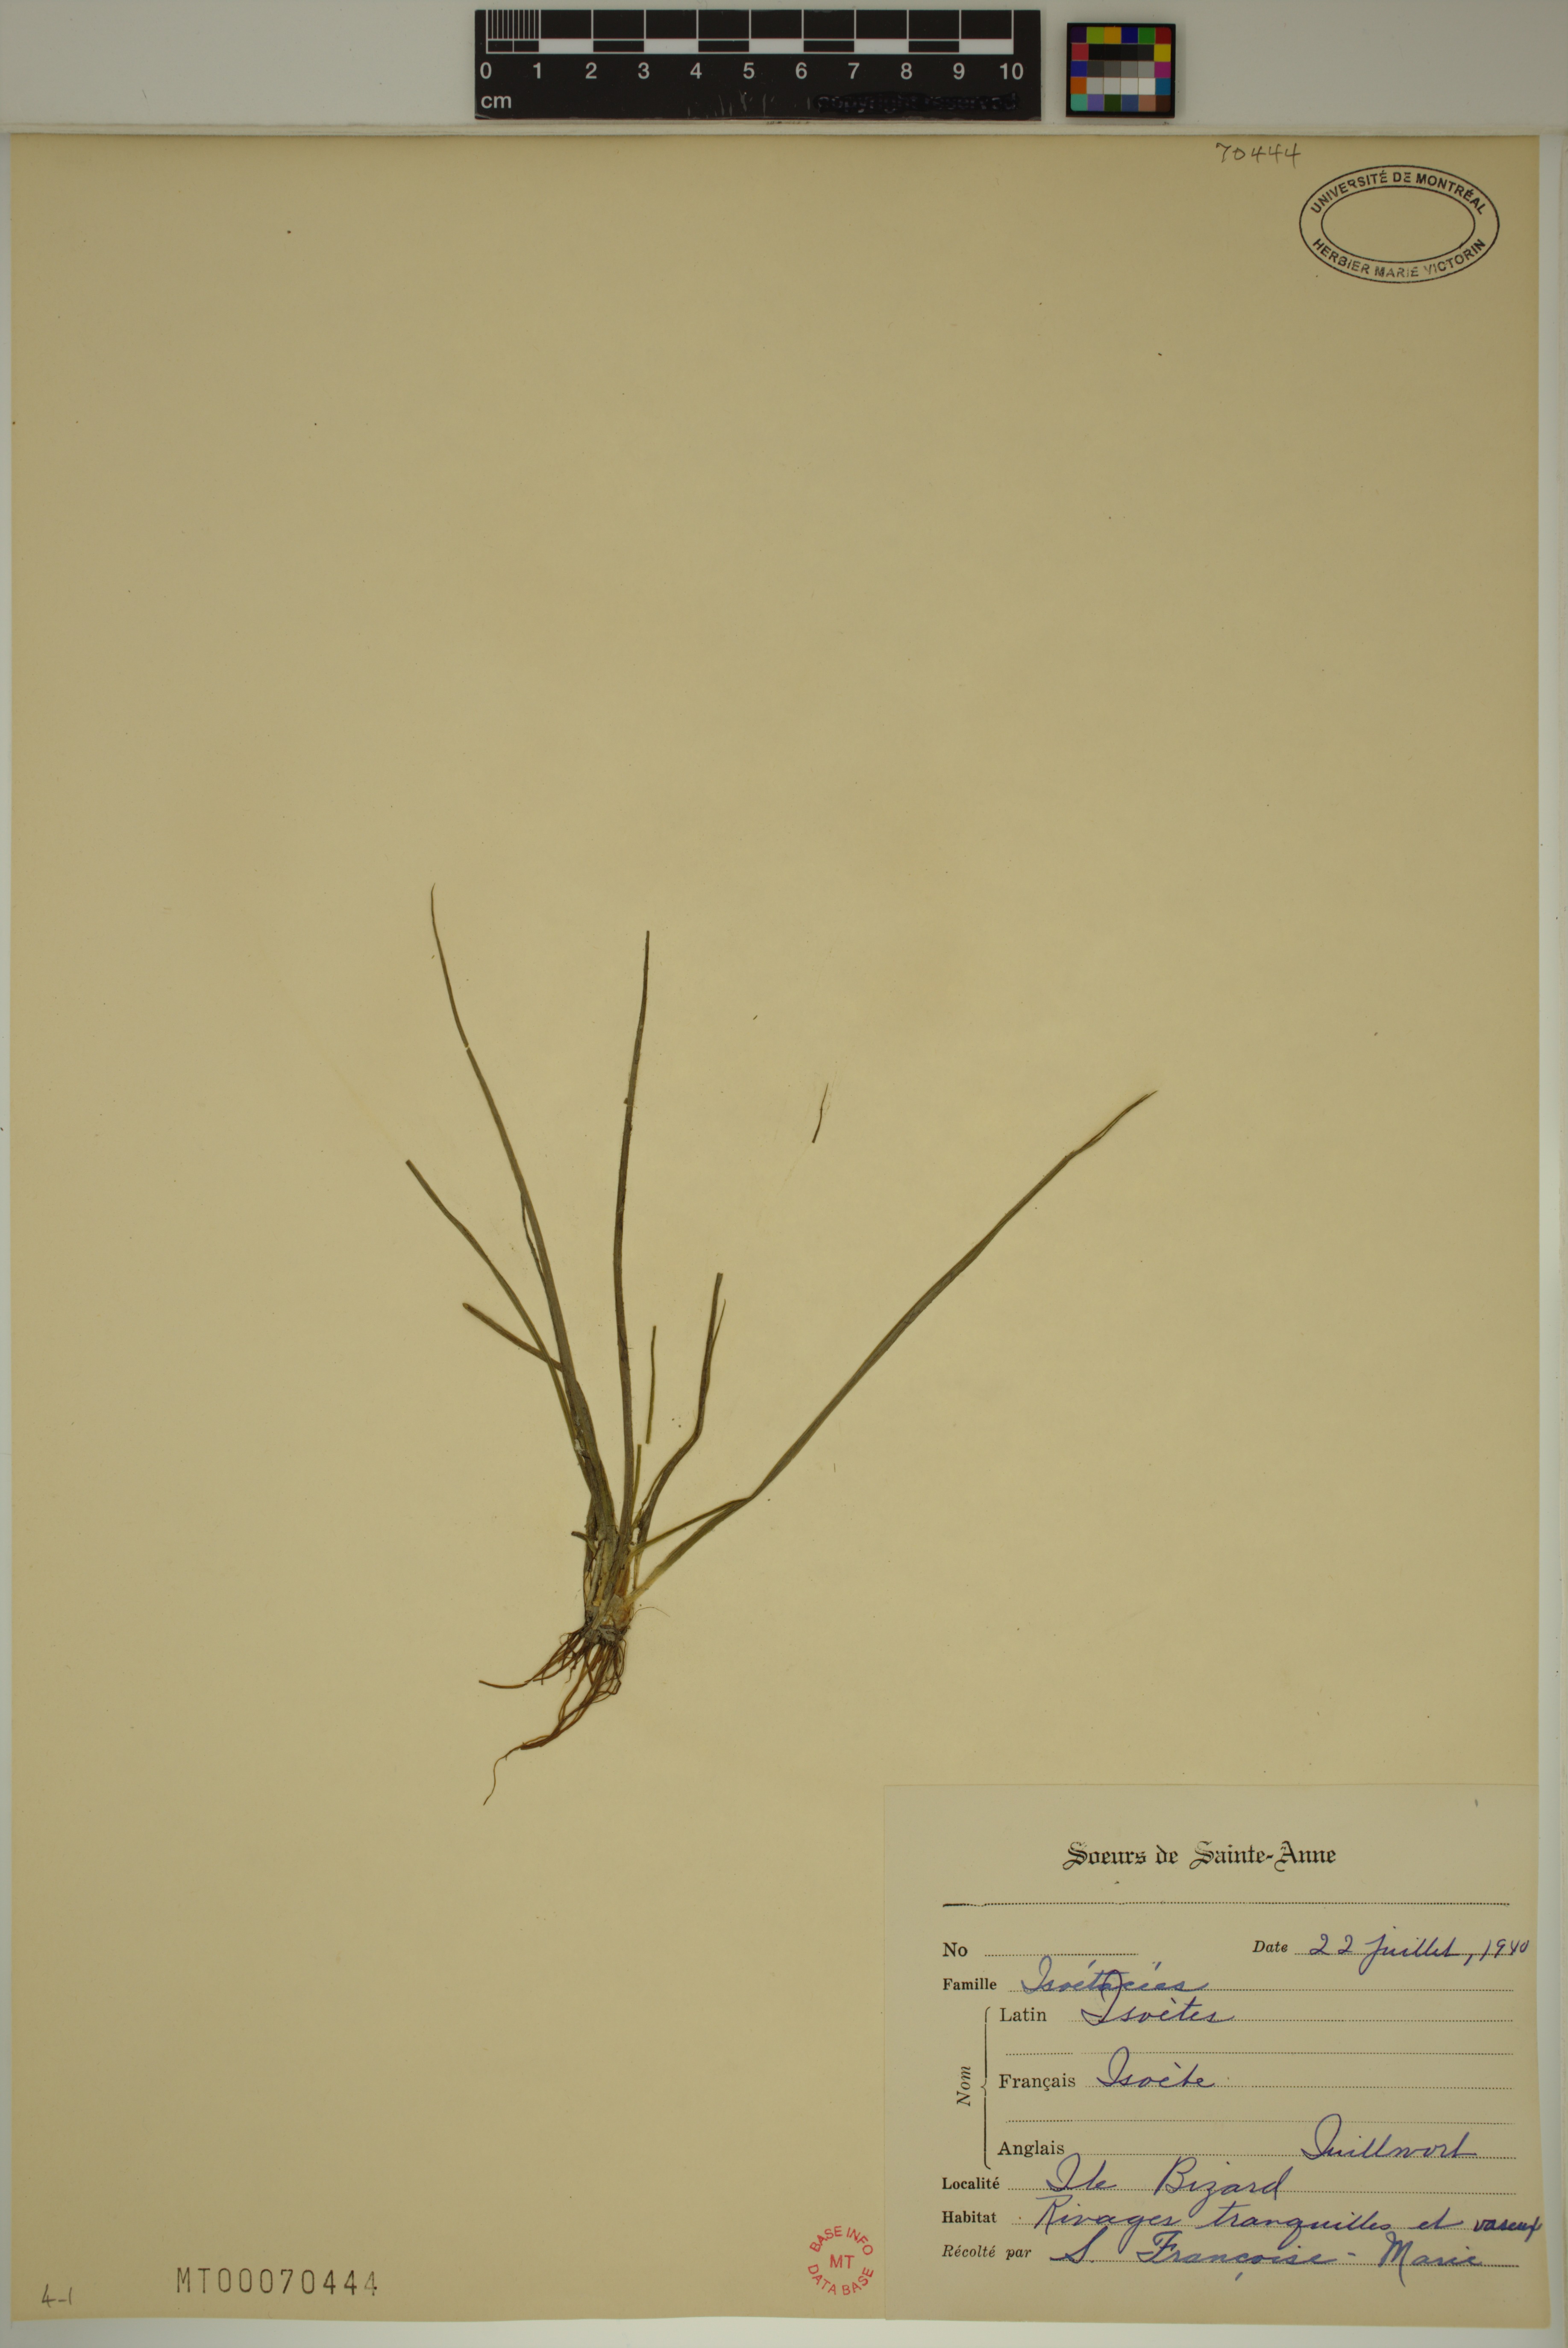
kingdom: Plantae
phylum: Tracheophyta
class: Lycopodiopsida
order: Isoetales
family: Isoetaceae
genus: Isoetes
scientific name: Isoetes septentrionalis
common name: Northern quillwort
